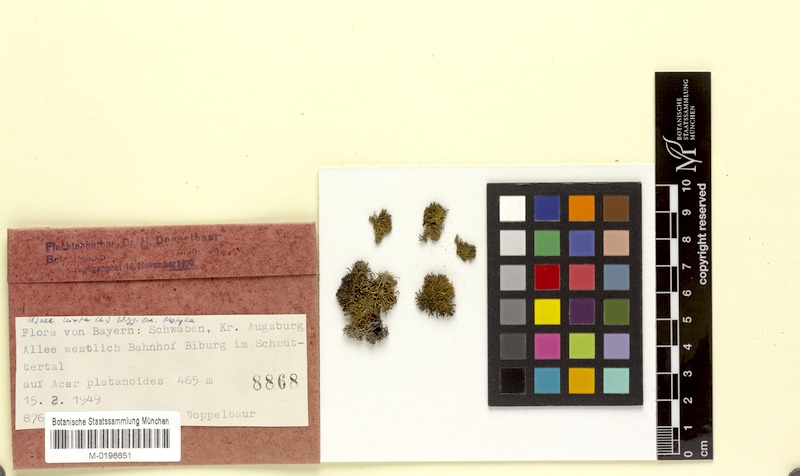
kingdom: Fungi
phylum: Ascomycota
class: Lecanoromycetes
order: Lecanorales
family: Parmeliaceae
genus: Usnea
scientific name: Usnea hirta
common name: Bristly beard lichen
